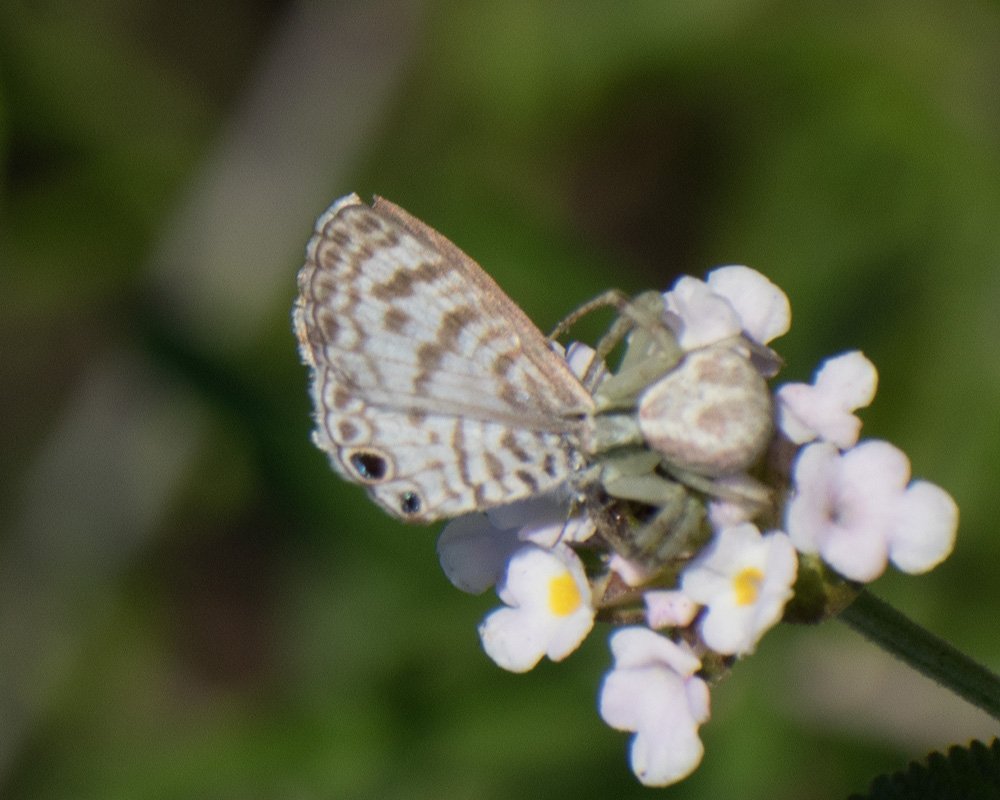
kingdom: Animalia
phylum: Arthropoda
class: Insecta
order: Lepidoptera
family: Lycaenidae
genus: Leptotes
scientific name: Leptotes cassius
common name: Cassius Blue
